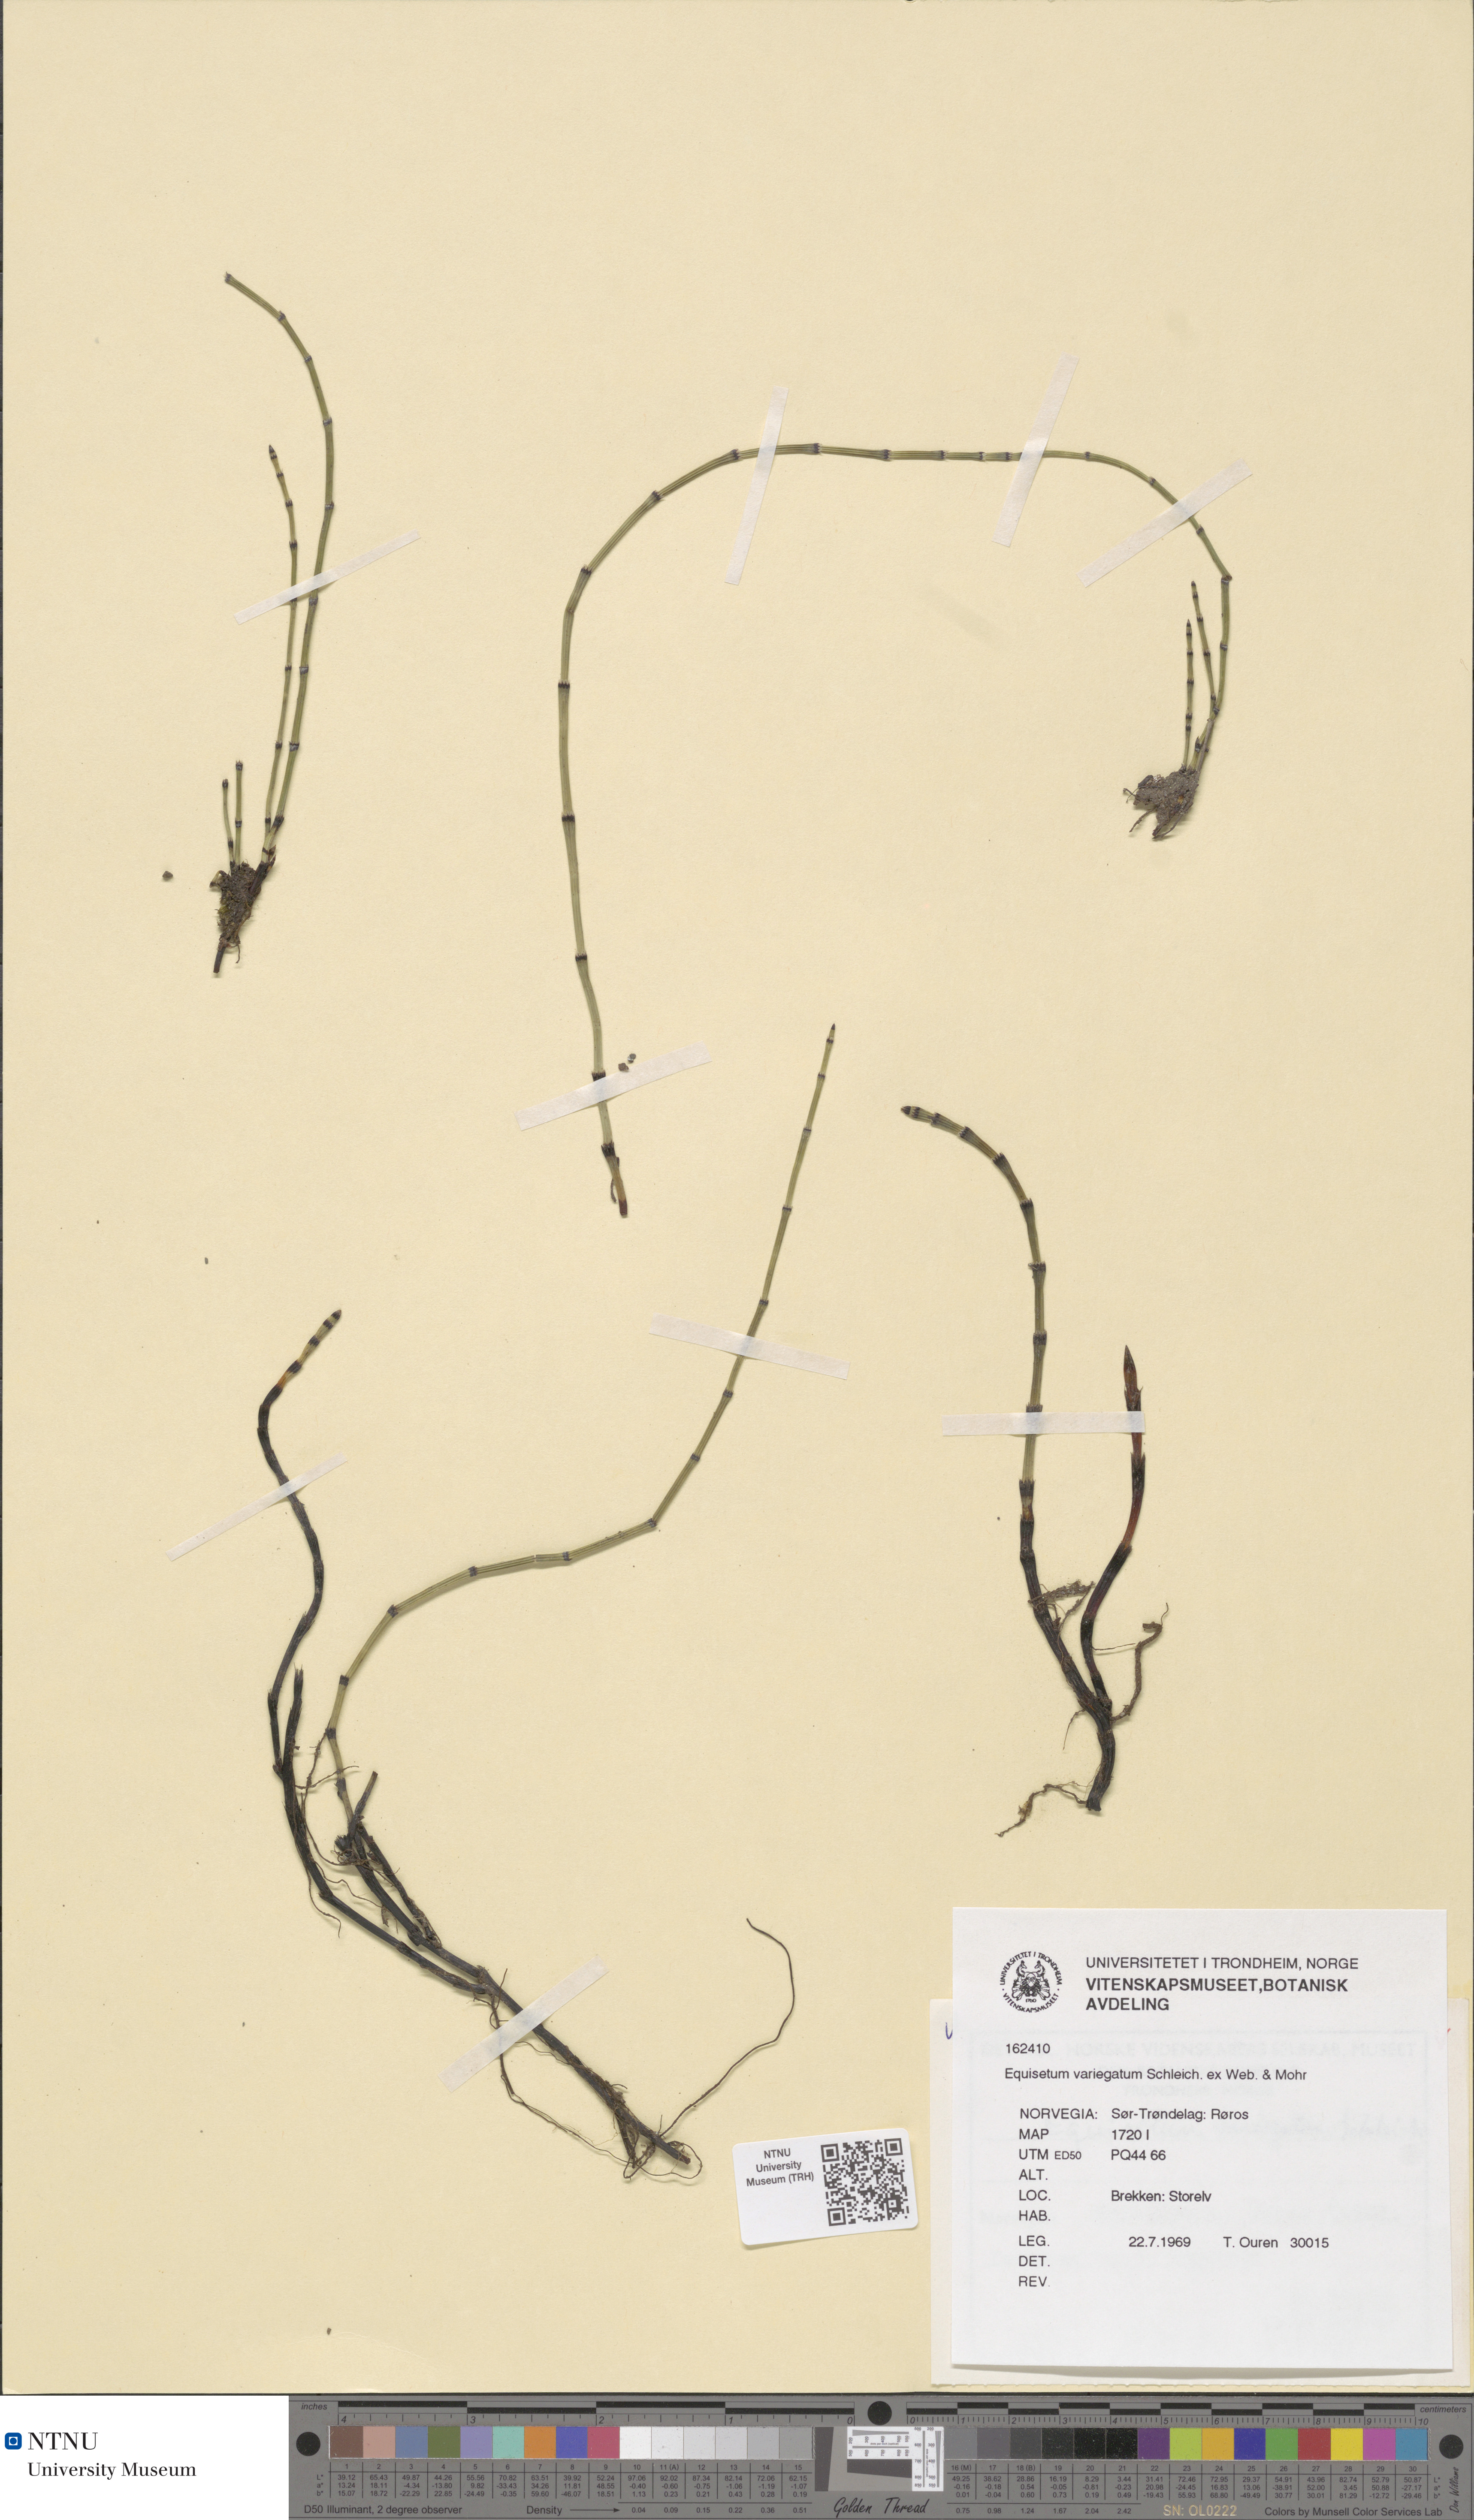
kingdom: Plantae
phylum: Tracheophyta
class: Polypodiopsida
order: Equisetales
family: Equisetaceae
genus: Equisetum
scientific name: Equisetum variegatum
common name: Variegated horsetail
